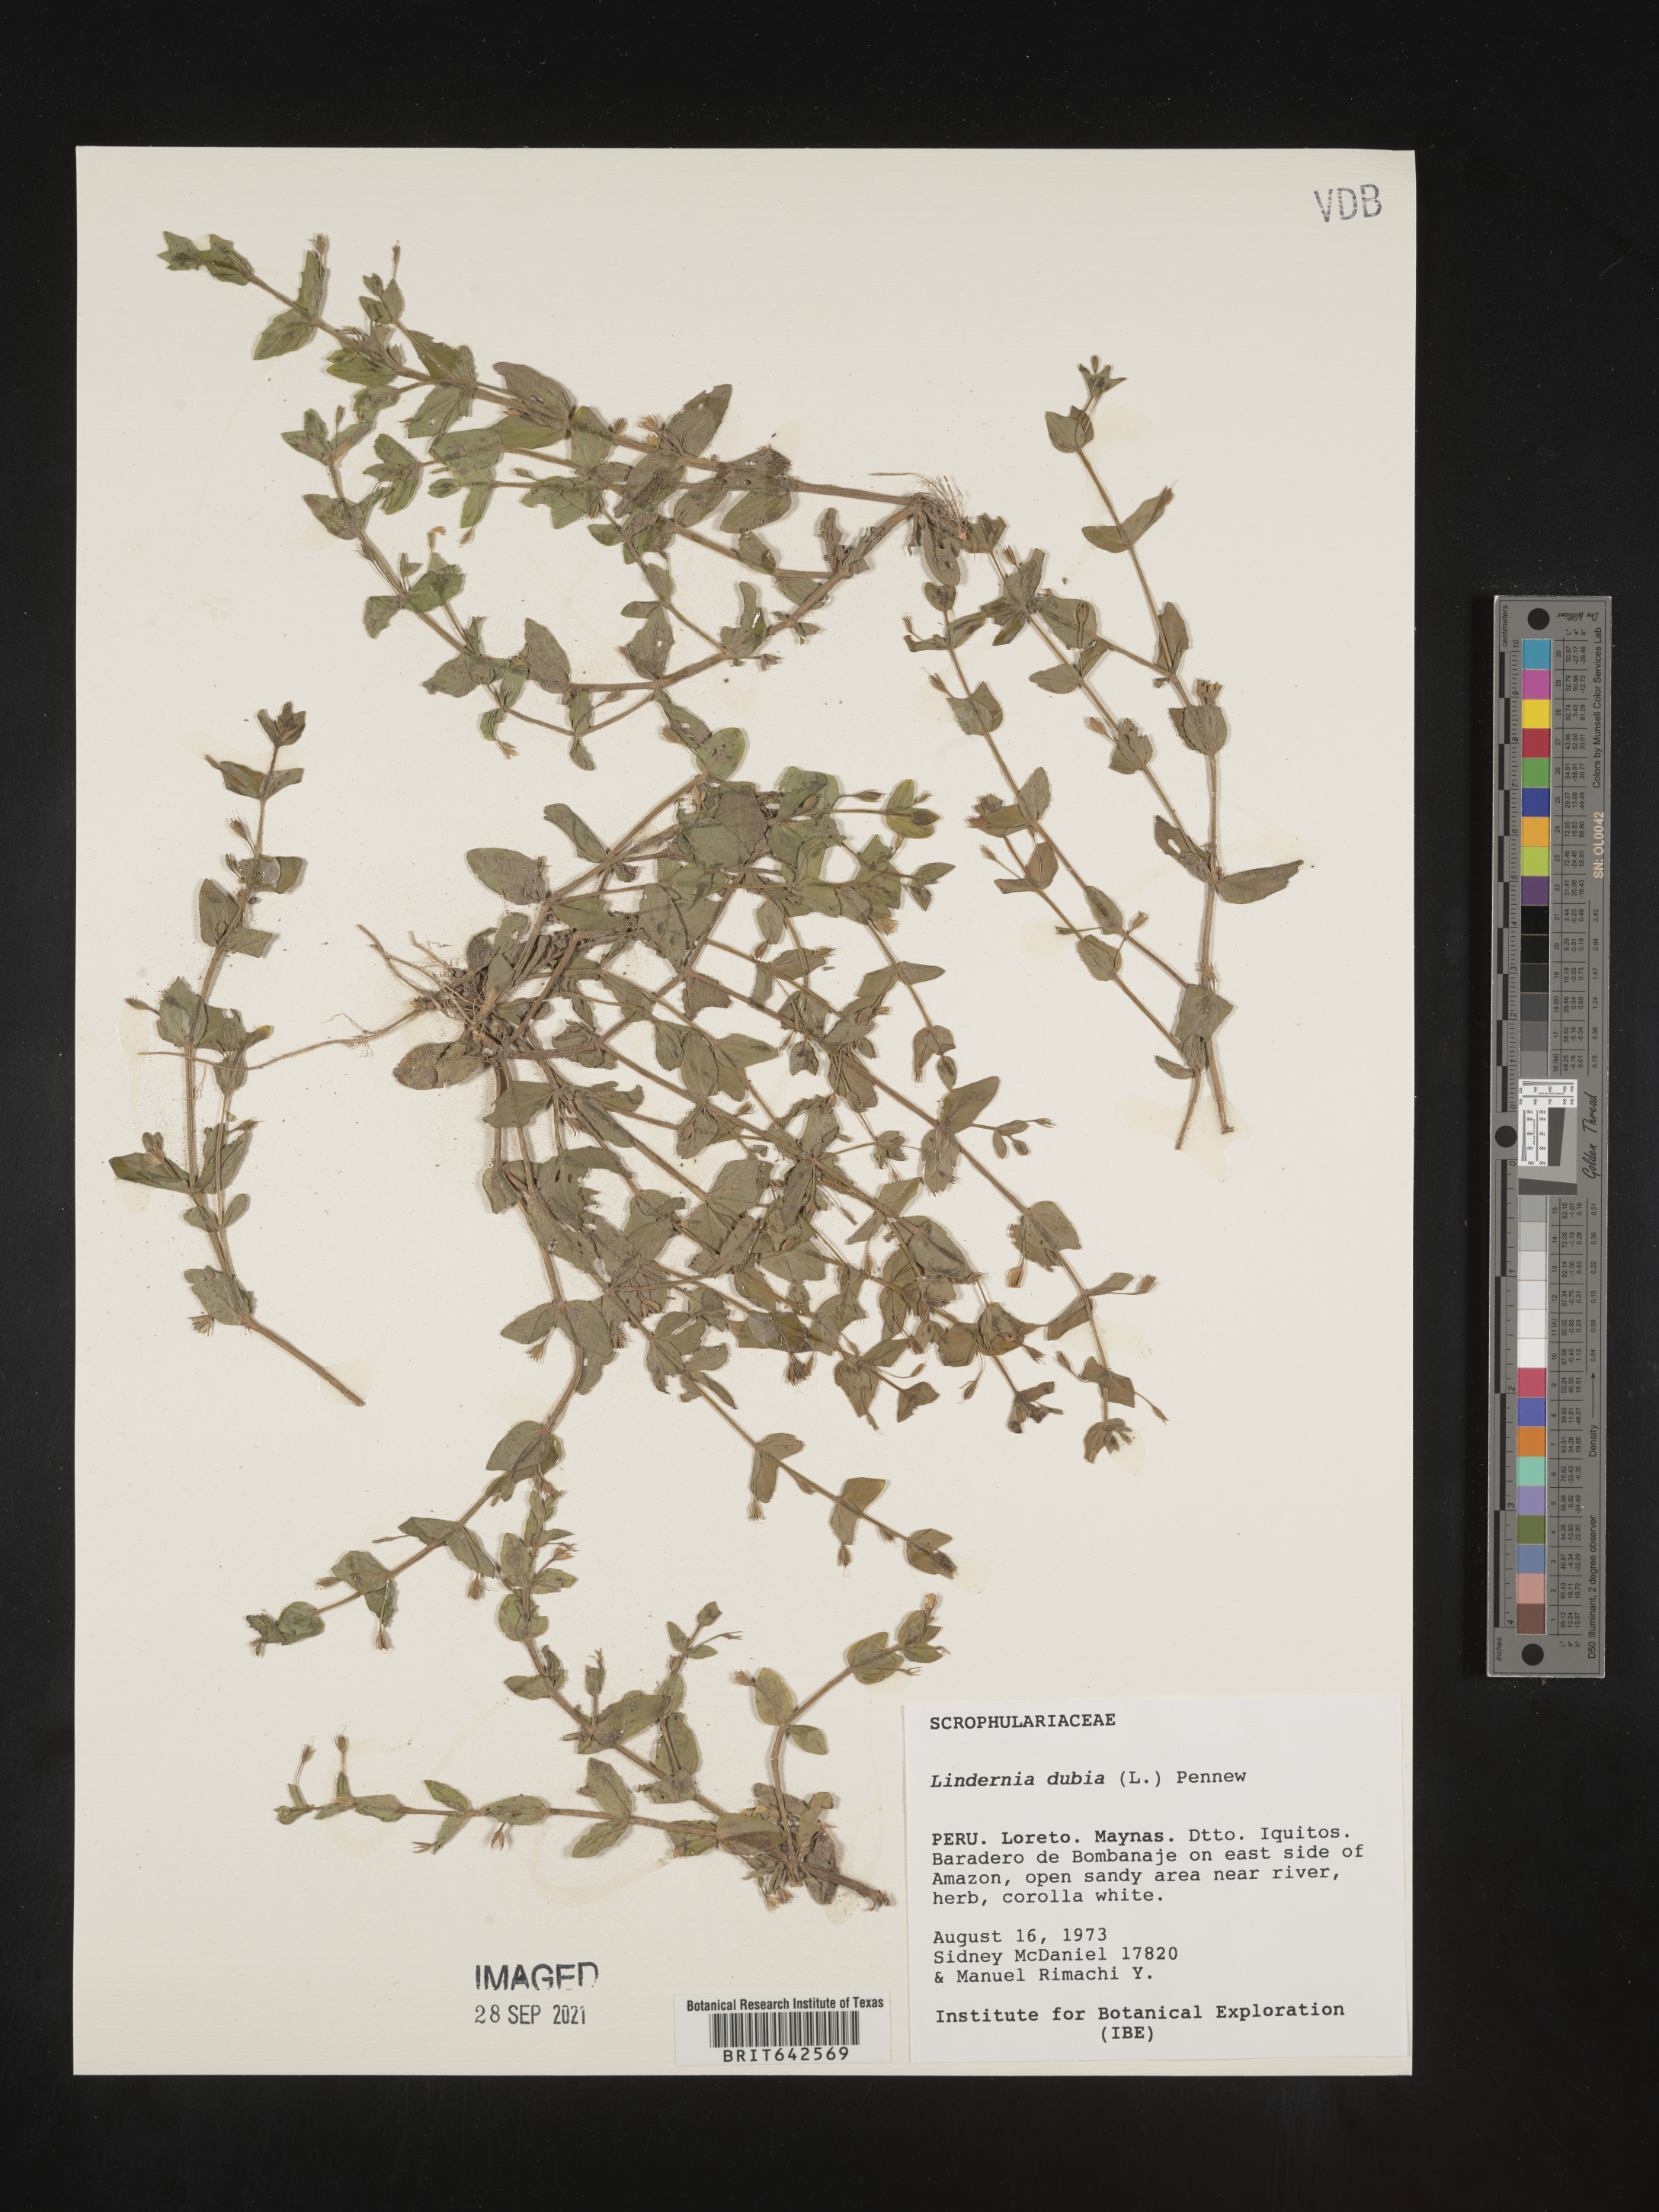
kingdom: Plantae
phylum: Tracheophyta
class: Magnoliopsida
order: Lamiales
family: Linderniaceae
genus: Lindernia
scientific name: Lindernia
